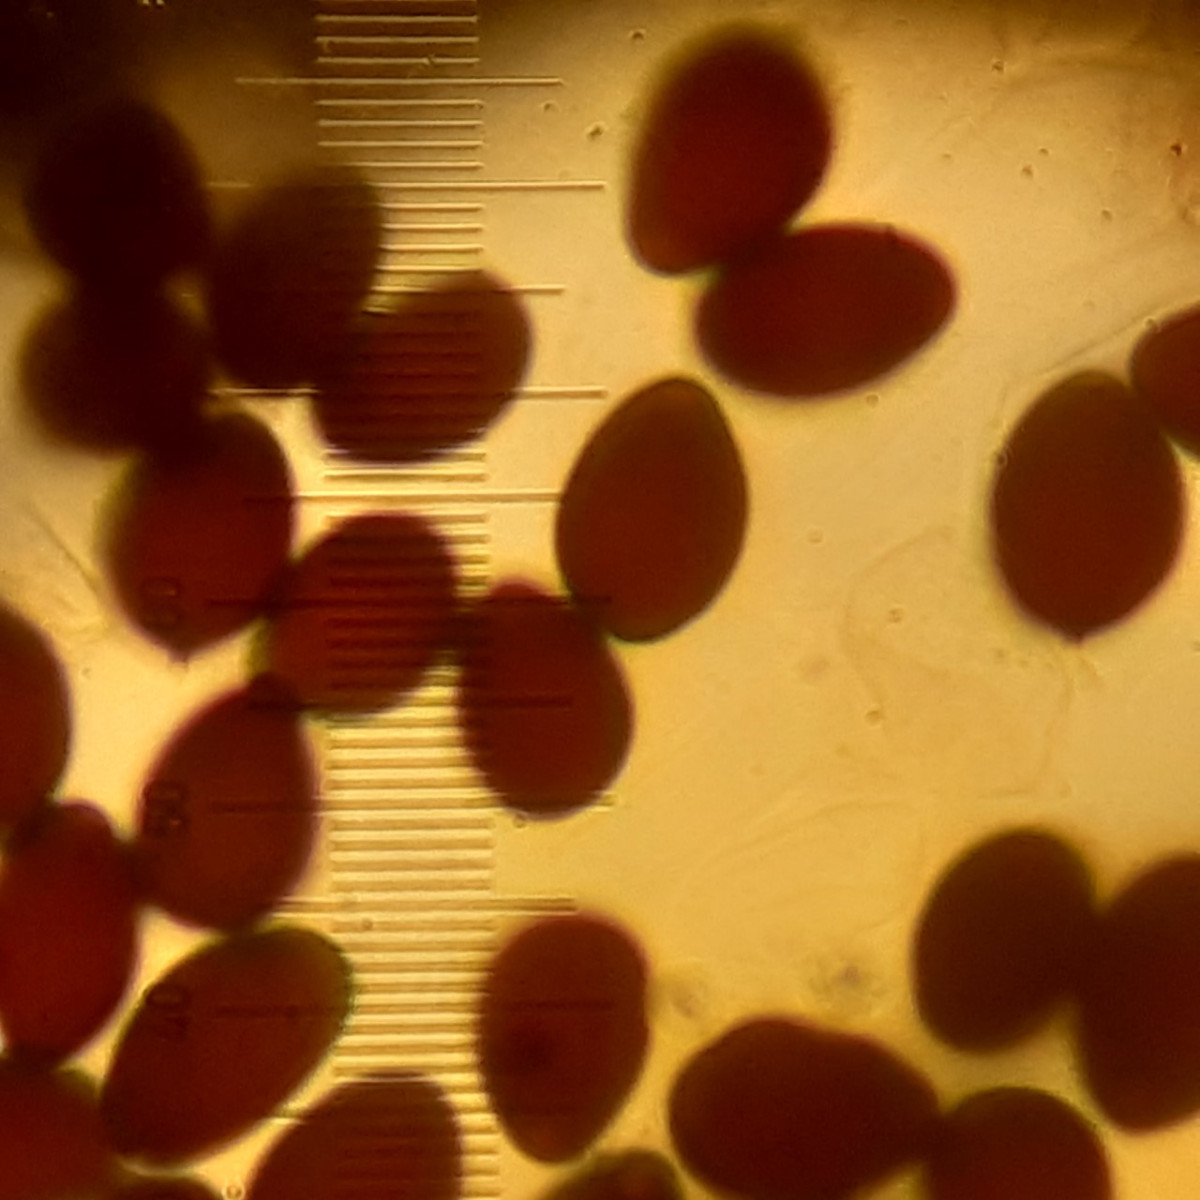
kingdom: Fungi
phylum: Basidiomycota
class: Agaricomycetes
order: Agaricales
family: Psathyrellaceae
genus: Parasola
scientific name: Parasola plicatilis
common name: plæne-hjulhat
